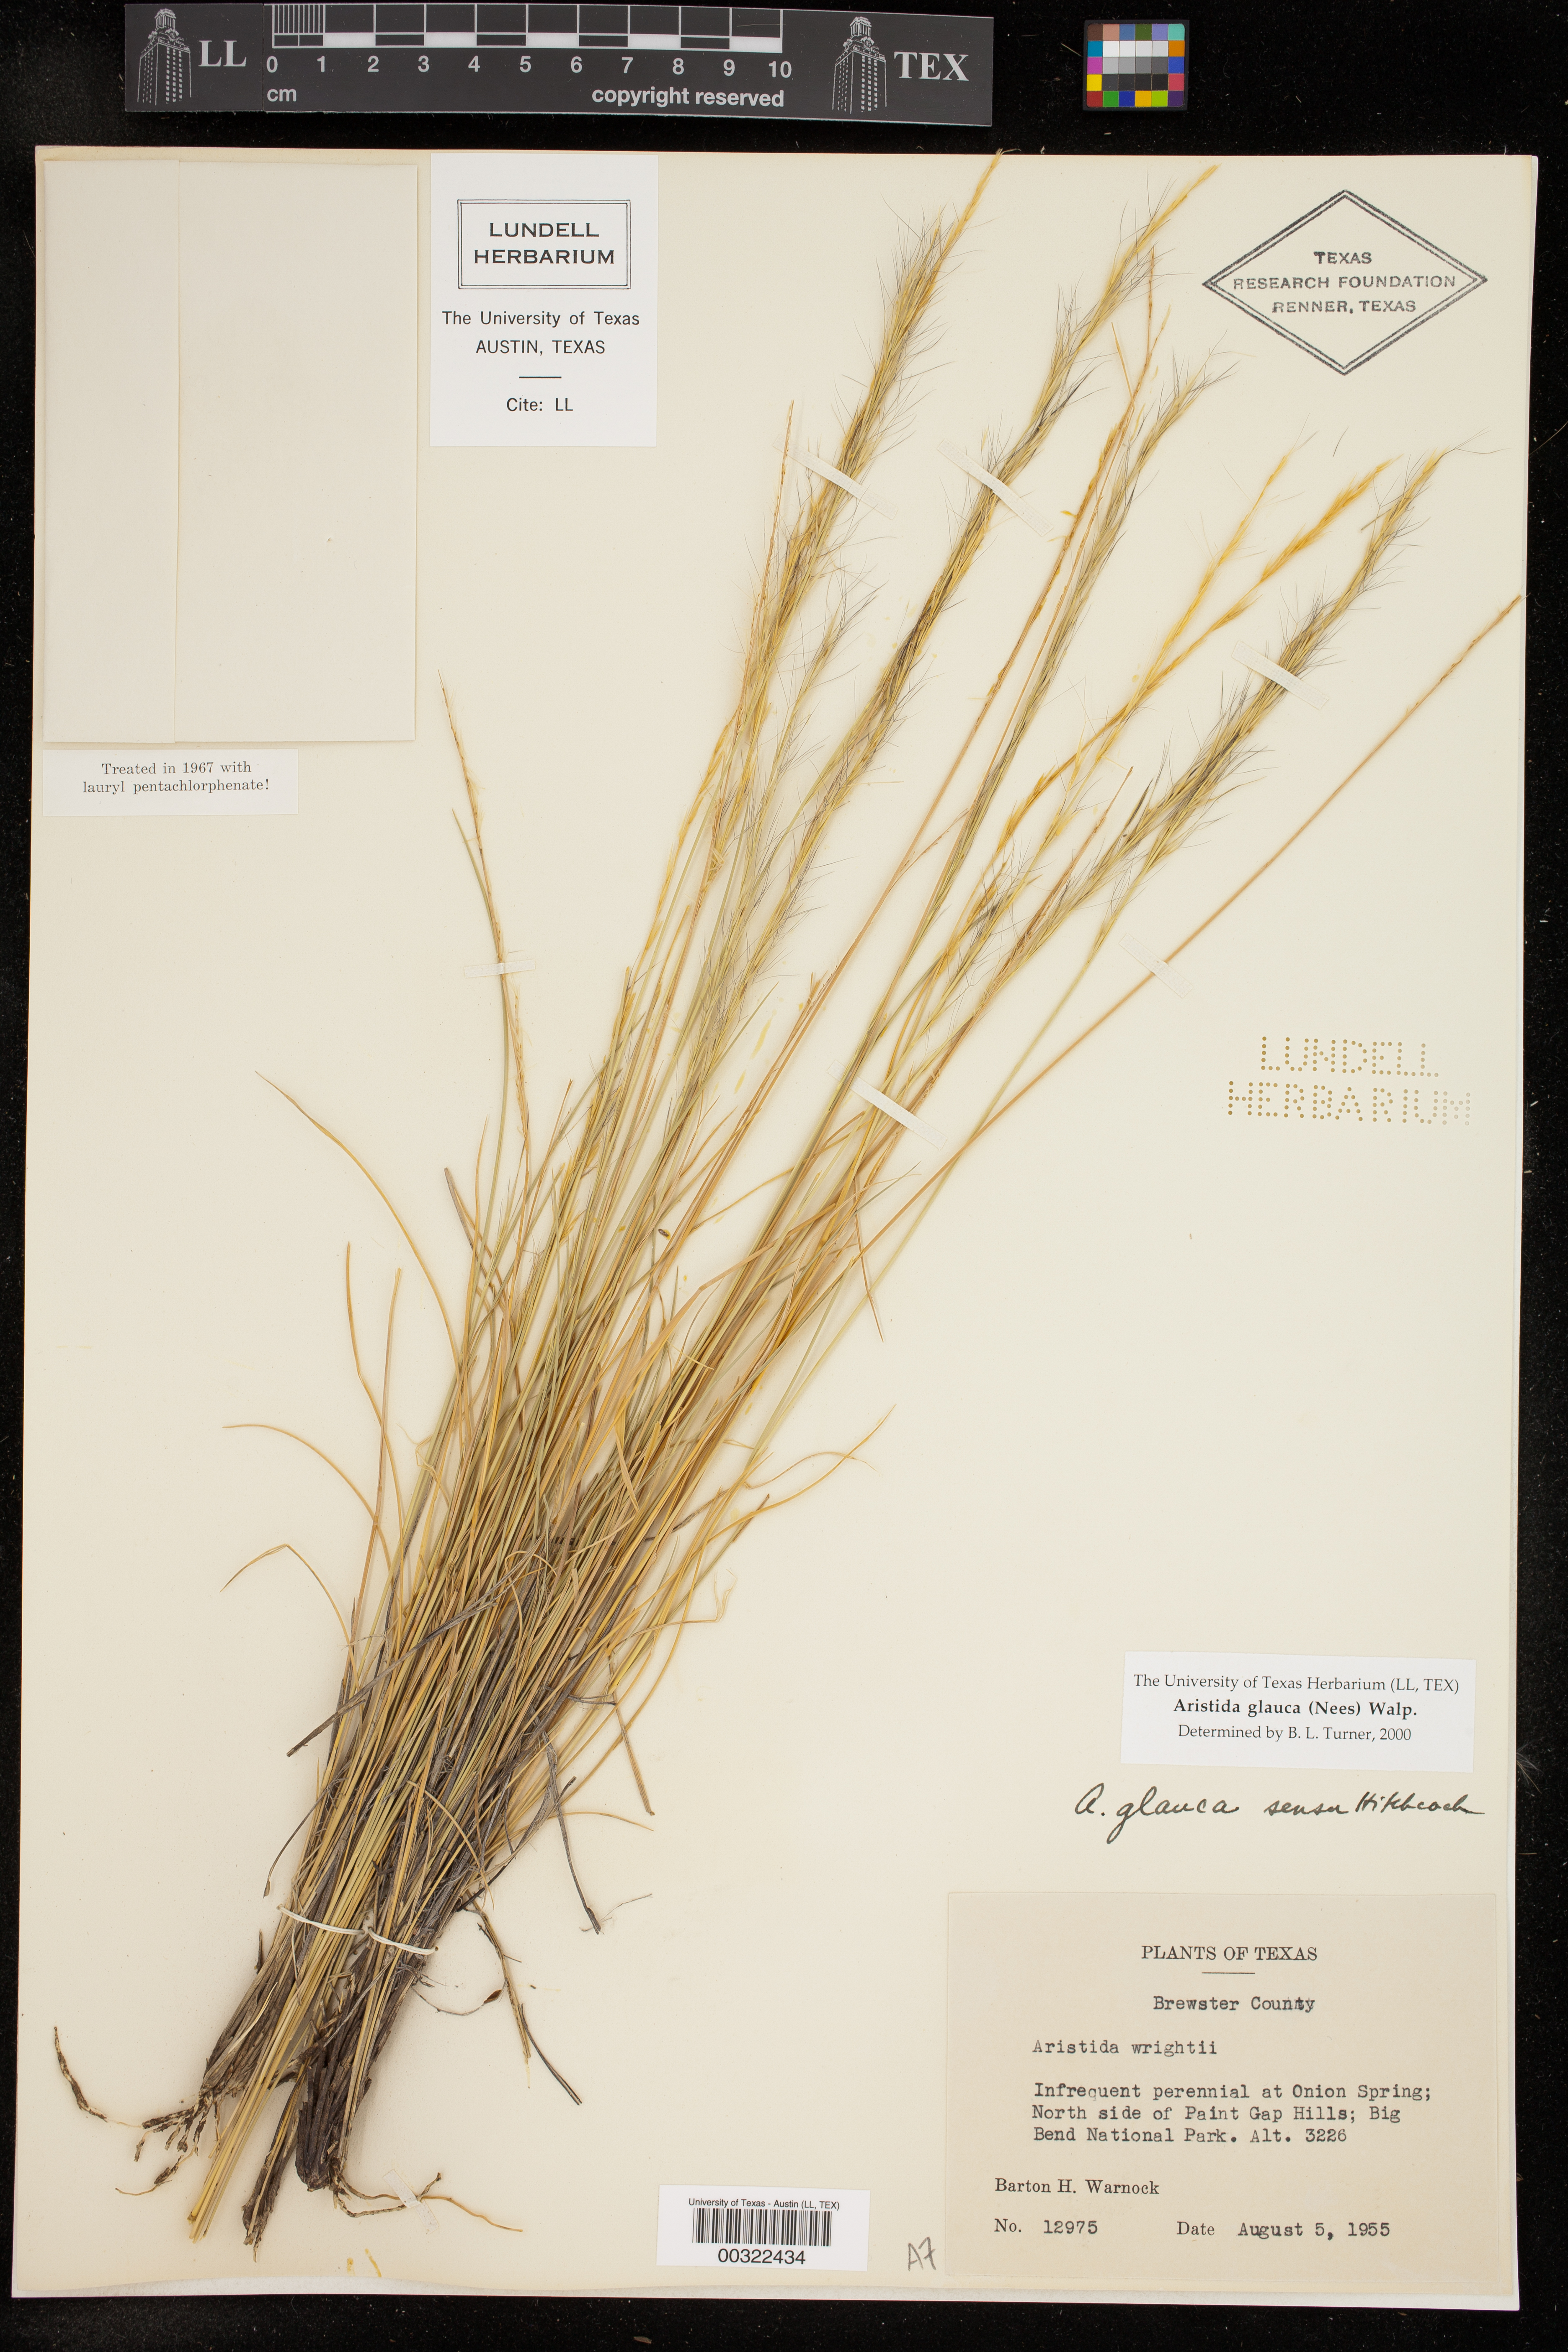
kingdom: Plantae
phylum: Tracheophyta
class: Liliopsida
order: Poales
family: Poaceae
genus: Aristida
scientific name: Aristida glauca
